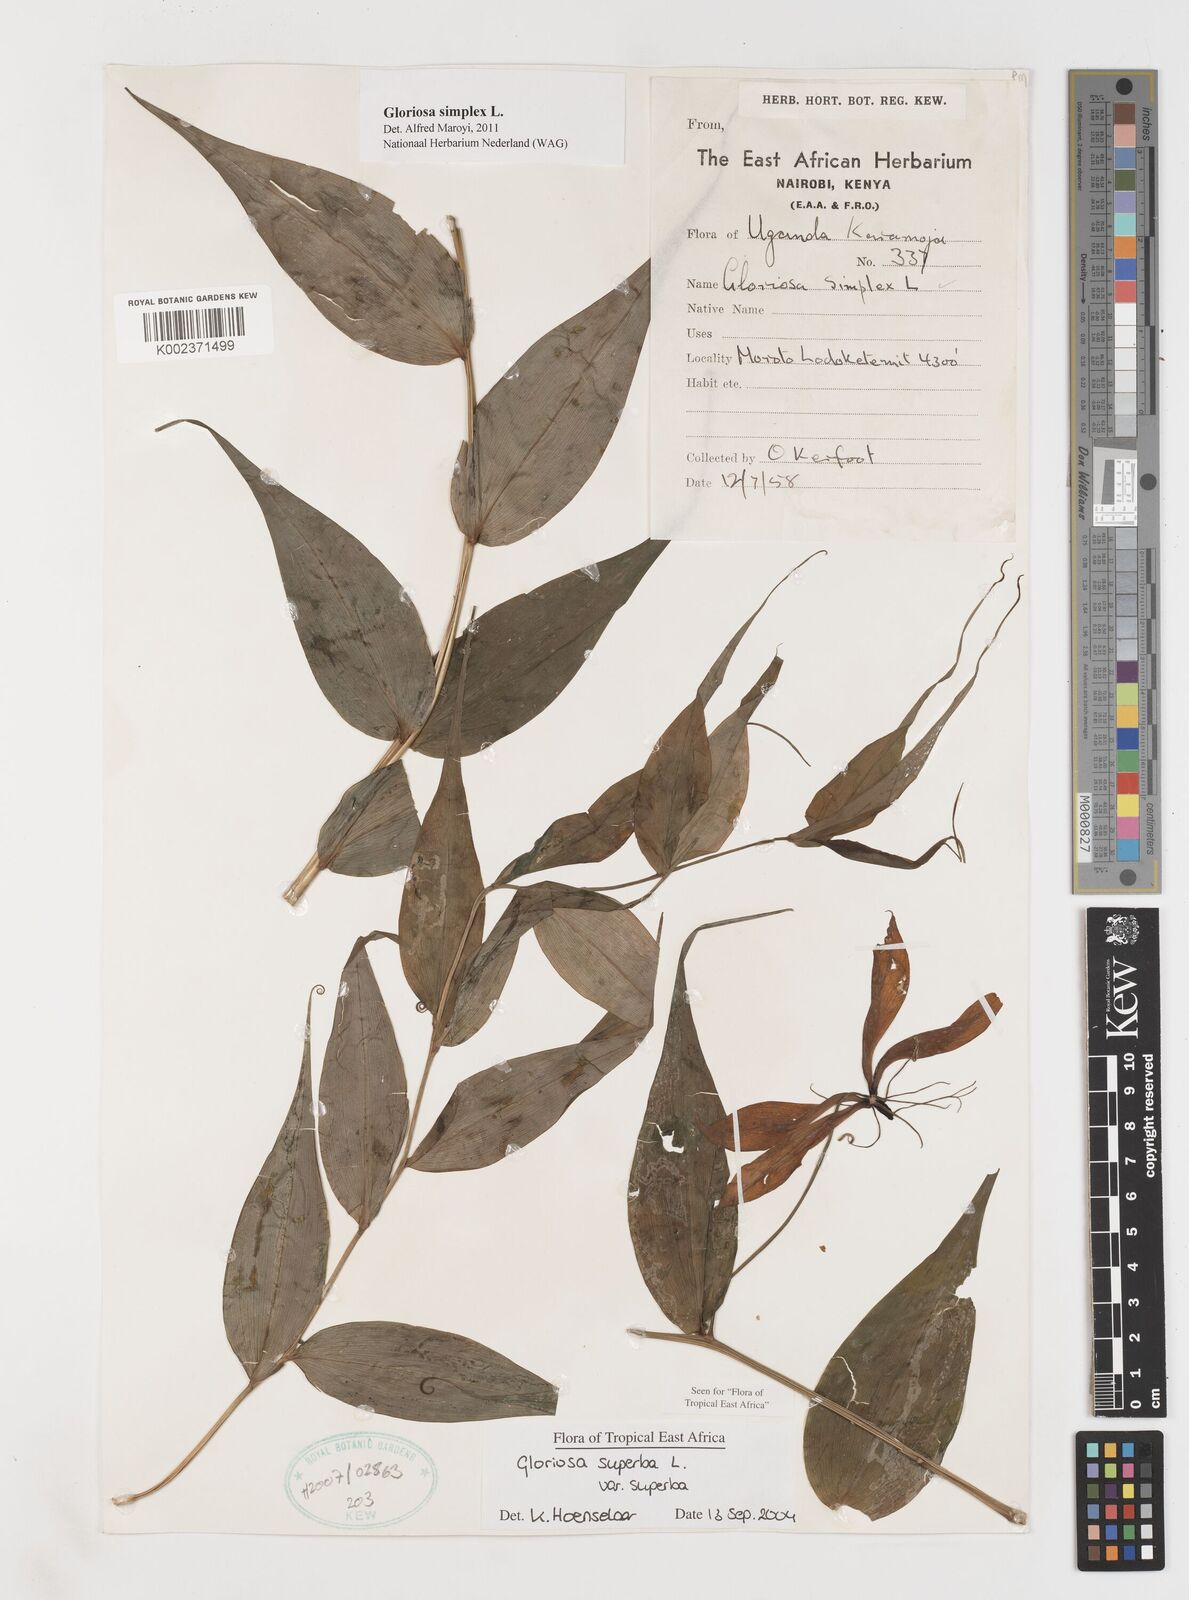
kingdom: Plantae
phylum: Tracheophyta
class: Liliopsida
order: Liliales
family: Colchicaceae
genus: Gloriosa
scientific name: Gloriosa simplex
